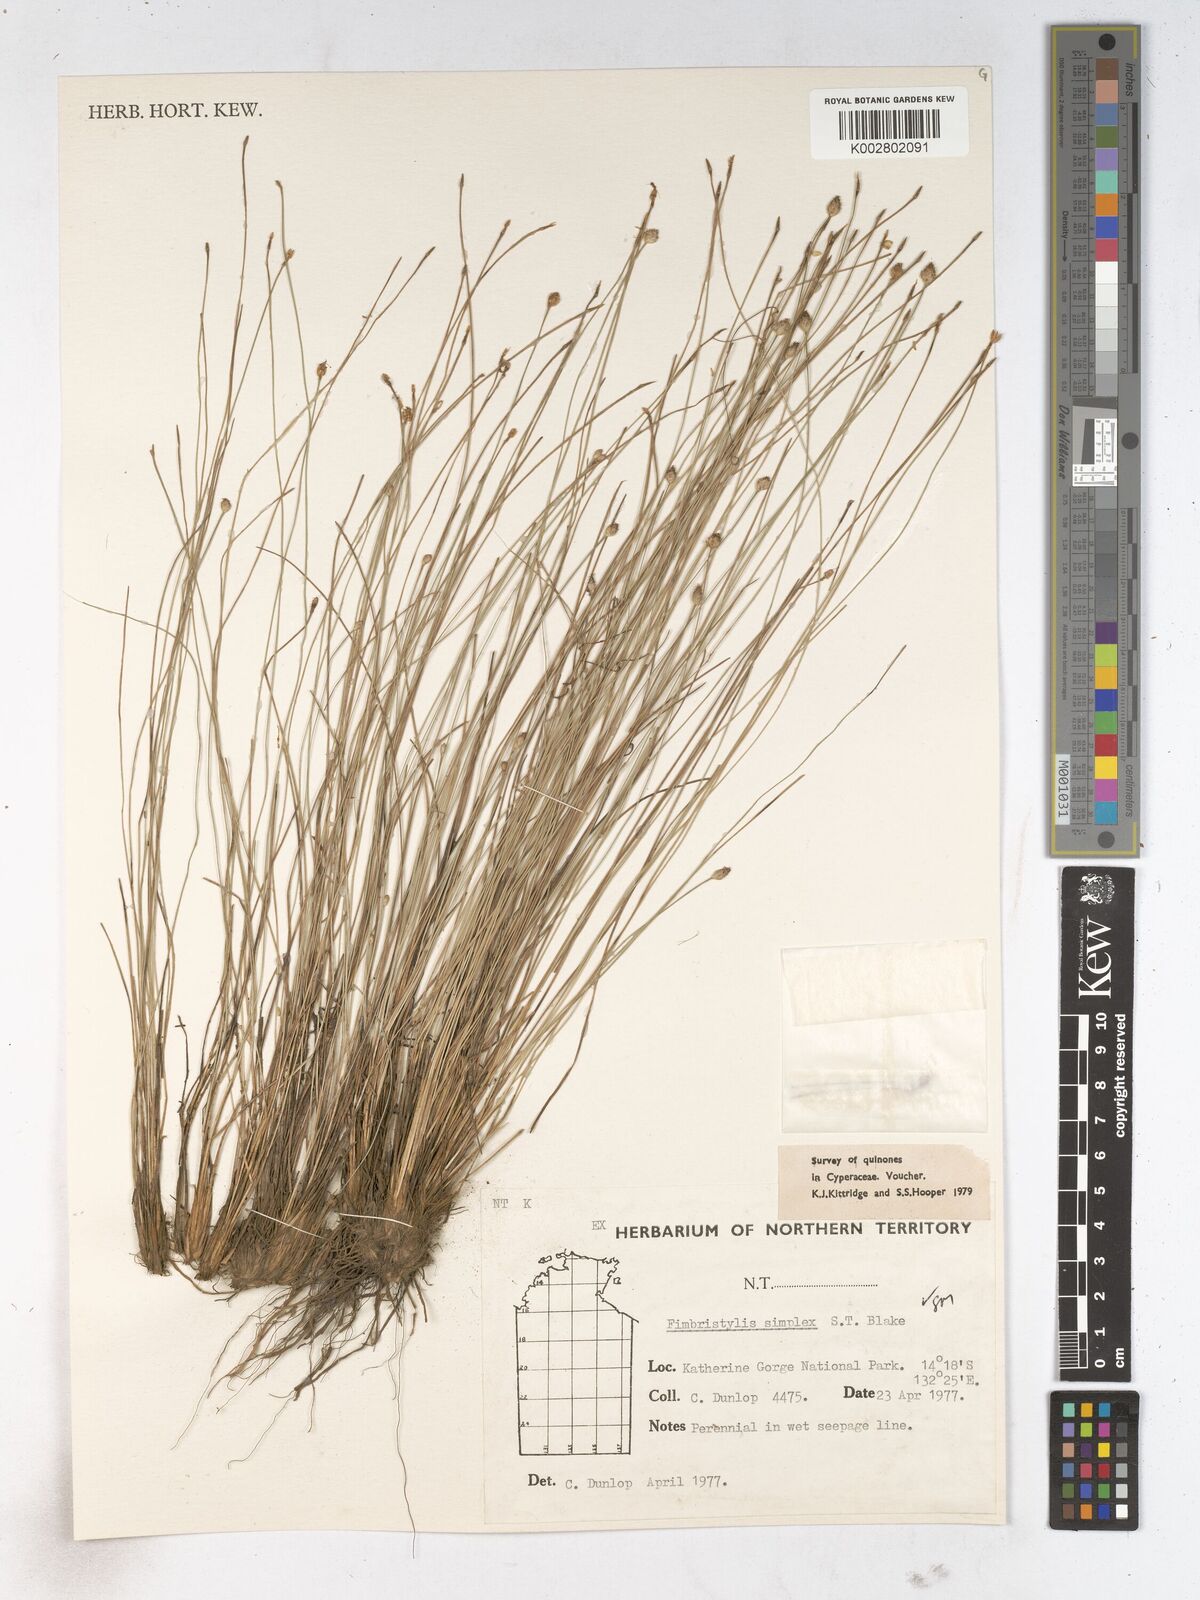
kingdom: Plantae
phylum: Tracheophyta
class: Liliopsida
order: Poales
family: Cyperaceae
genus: Fimbristylis
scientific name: Fimbristylis simplex
